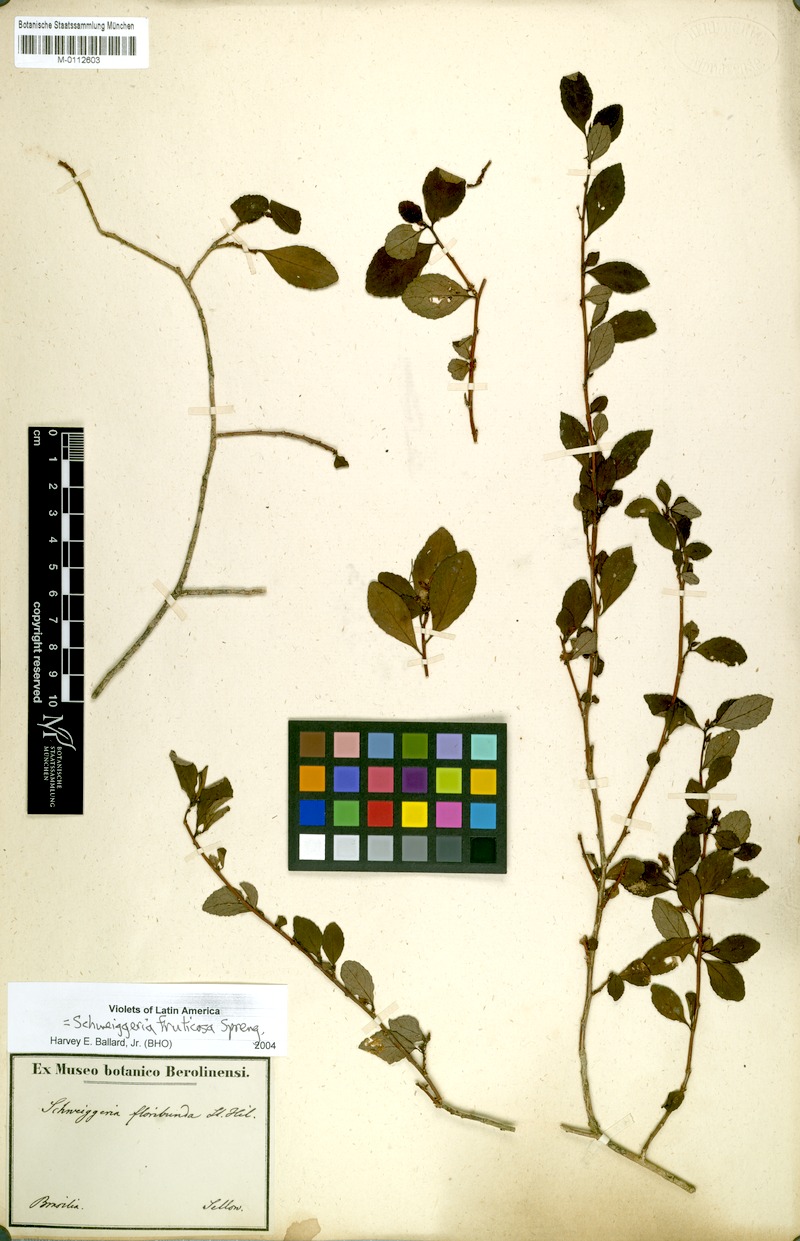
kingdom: Plantae
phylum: Tracheophyta
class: Magnoliopsida
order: Malpighiales
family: Violaceae
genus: Schweiggeria
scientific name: Schweiggeria fruticosa
